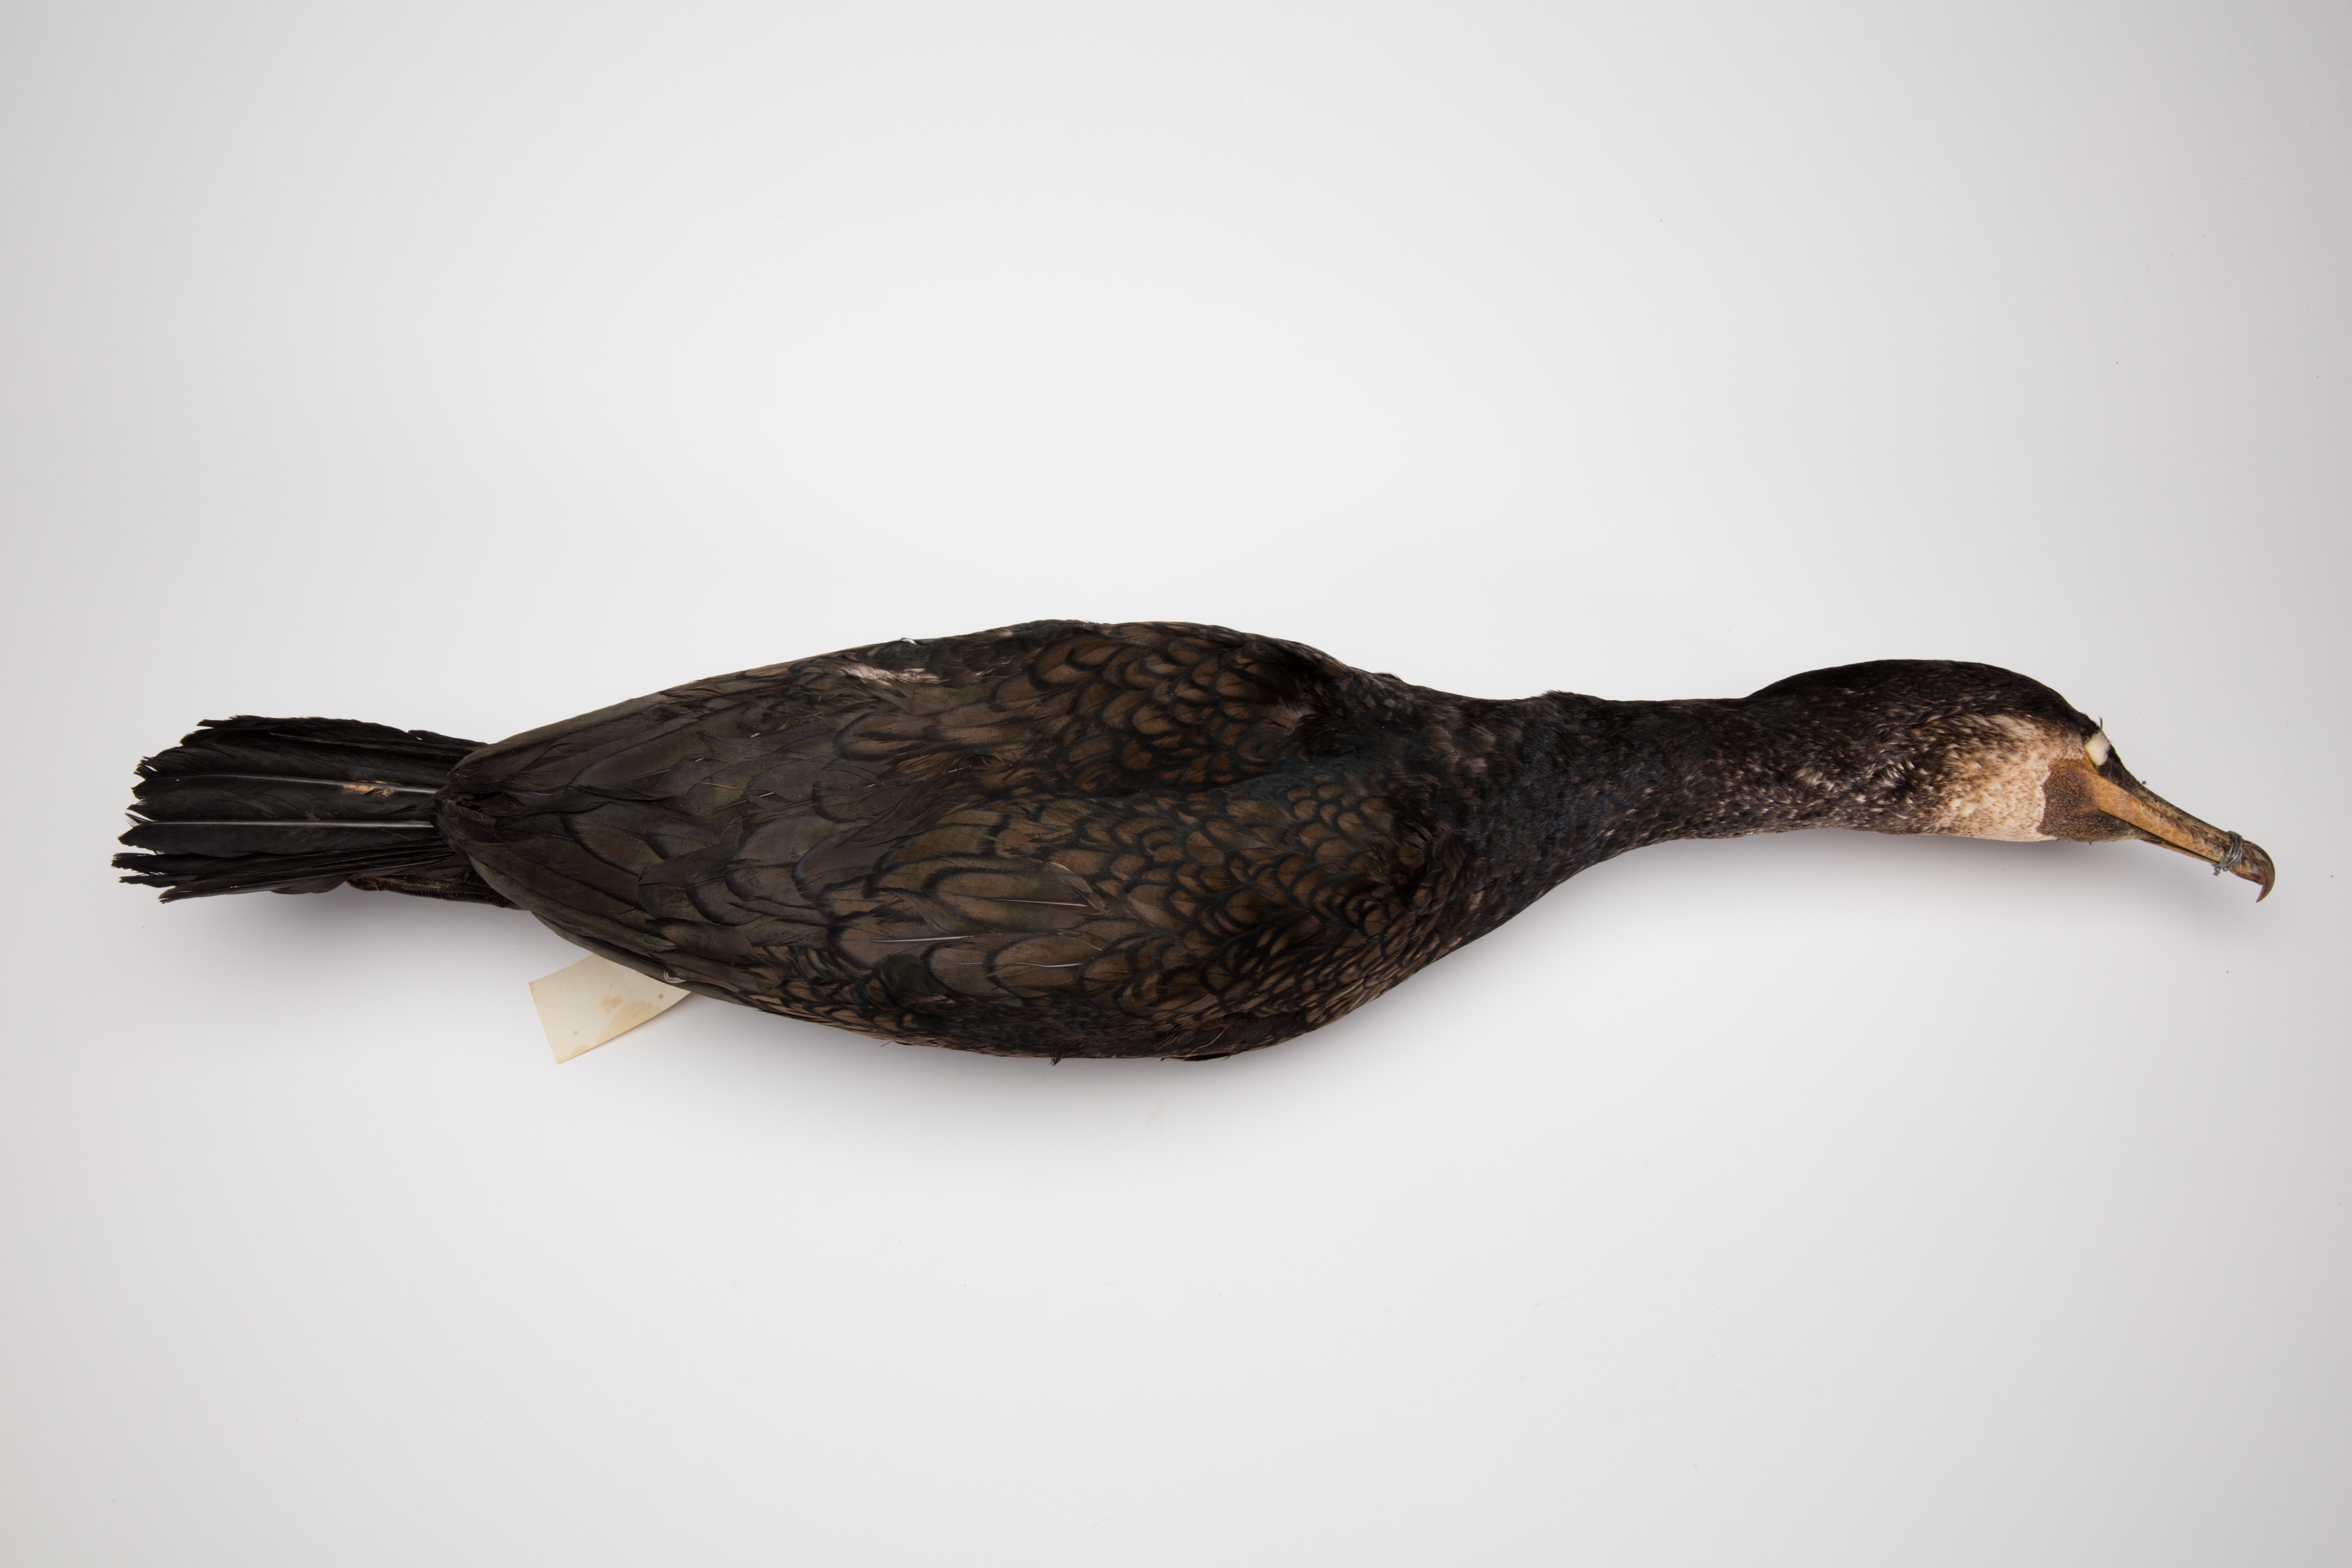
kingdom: Animalia
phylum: Chordata
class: Aves
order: Suliformes
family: Phalacrocoracidae
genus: Phalacrocorax
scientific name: Phalacrocorax carbo
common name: Great cormorant
